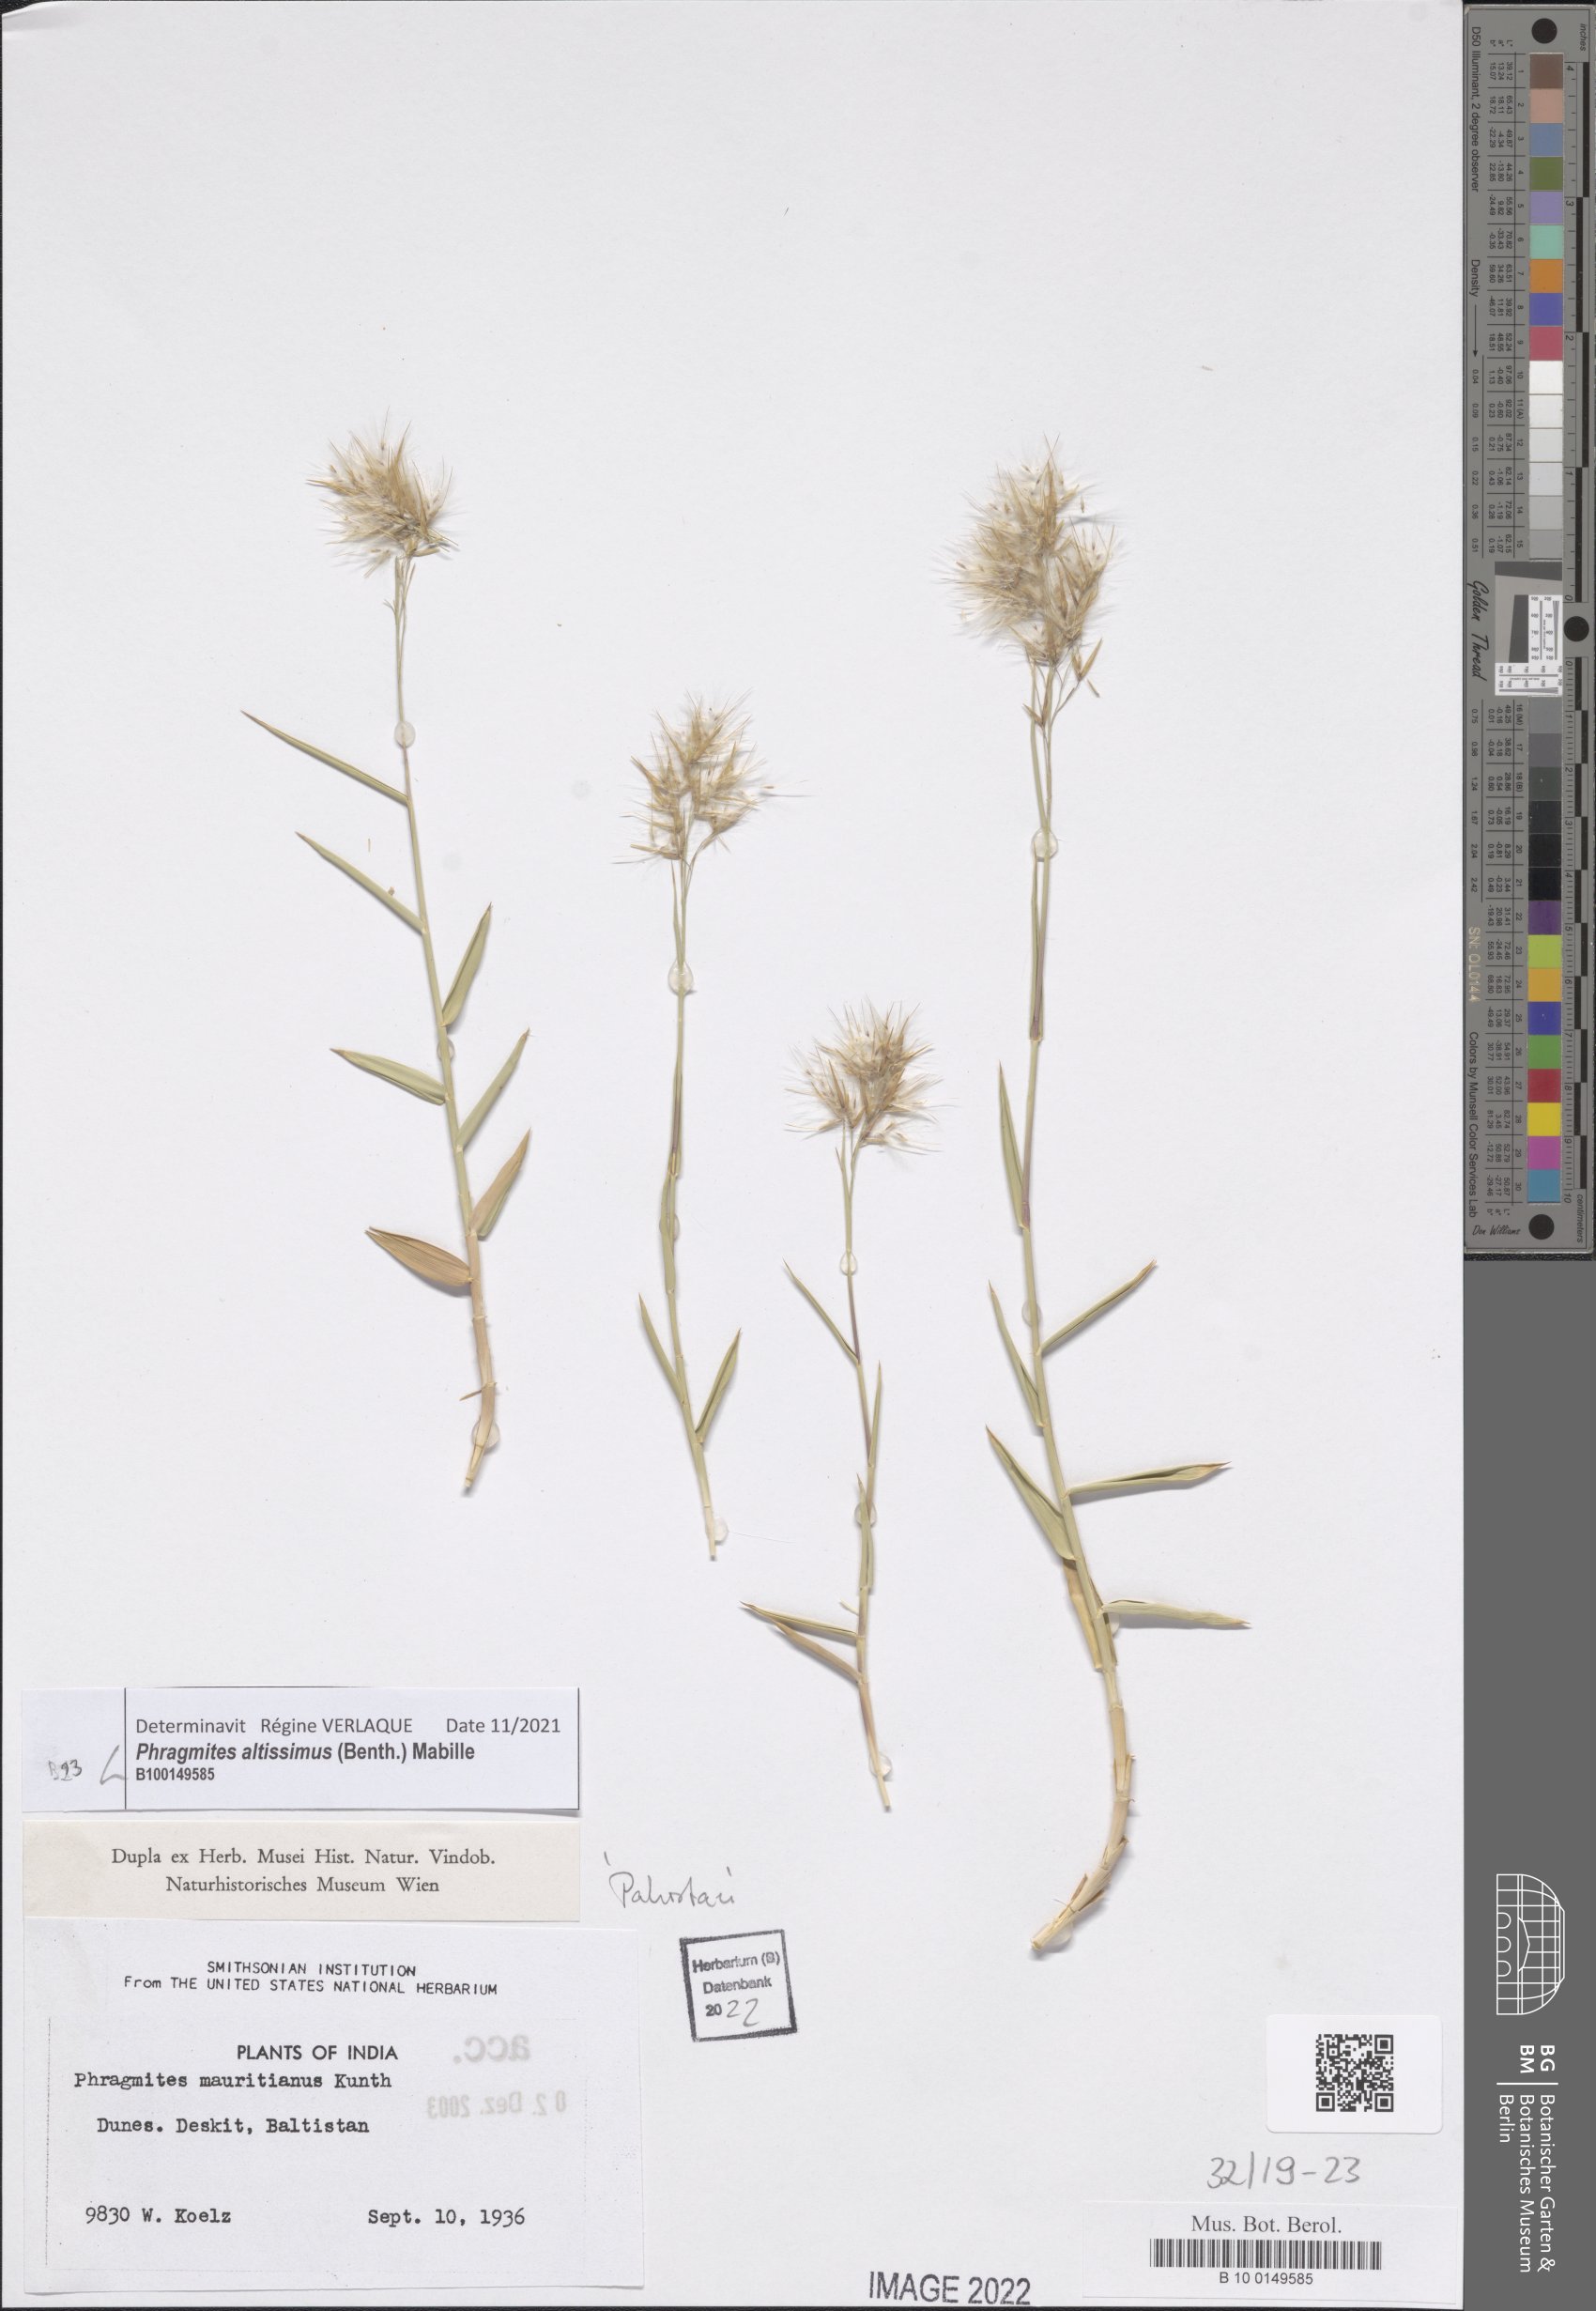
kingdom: Plantae
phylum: Tracheophyta
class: Liliopsida
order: Poales
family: Poaceae
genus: Phragmites
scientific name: Phragmites australis
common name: Common reed
